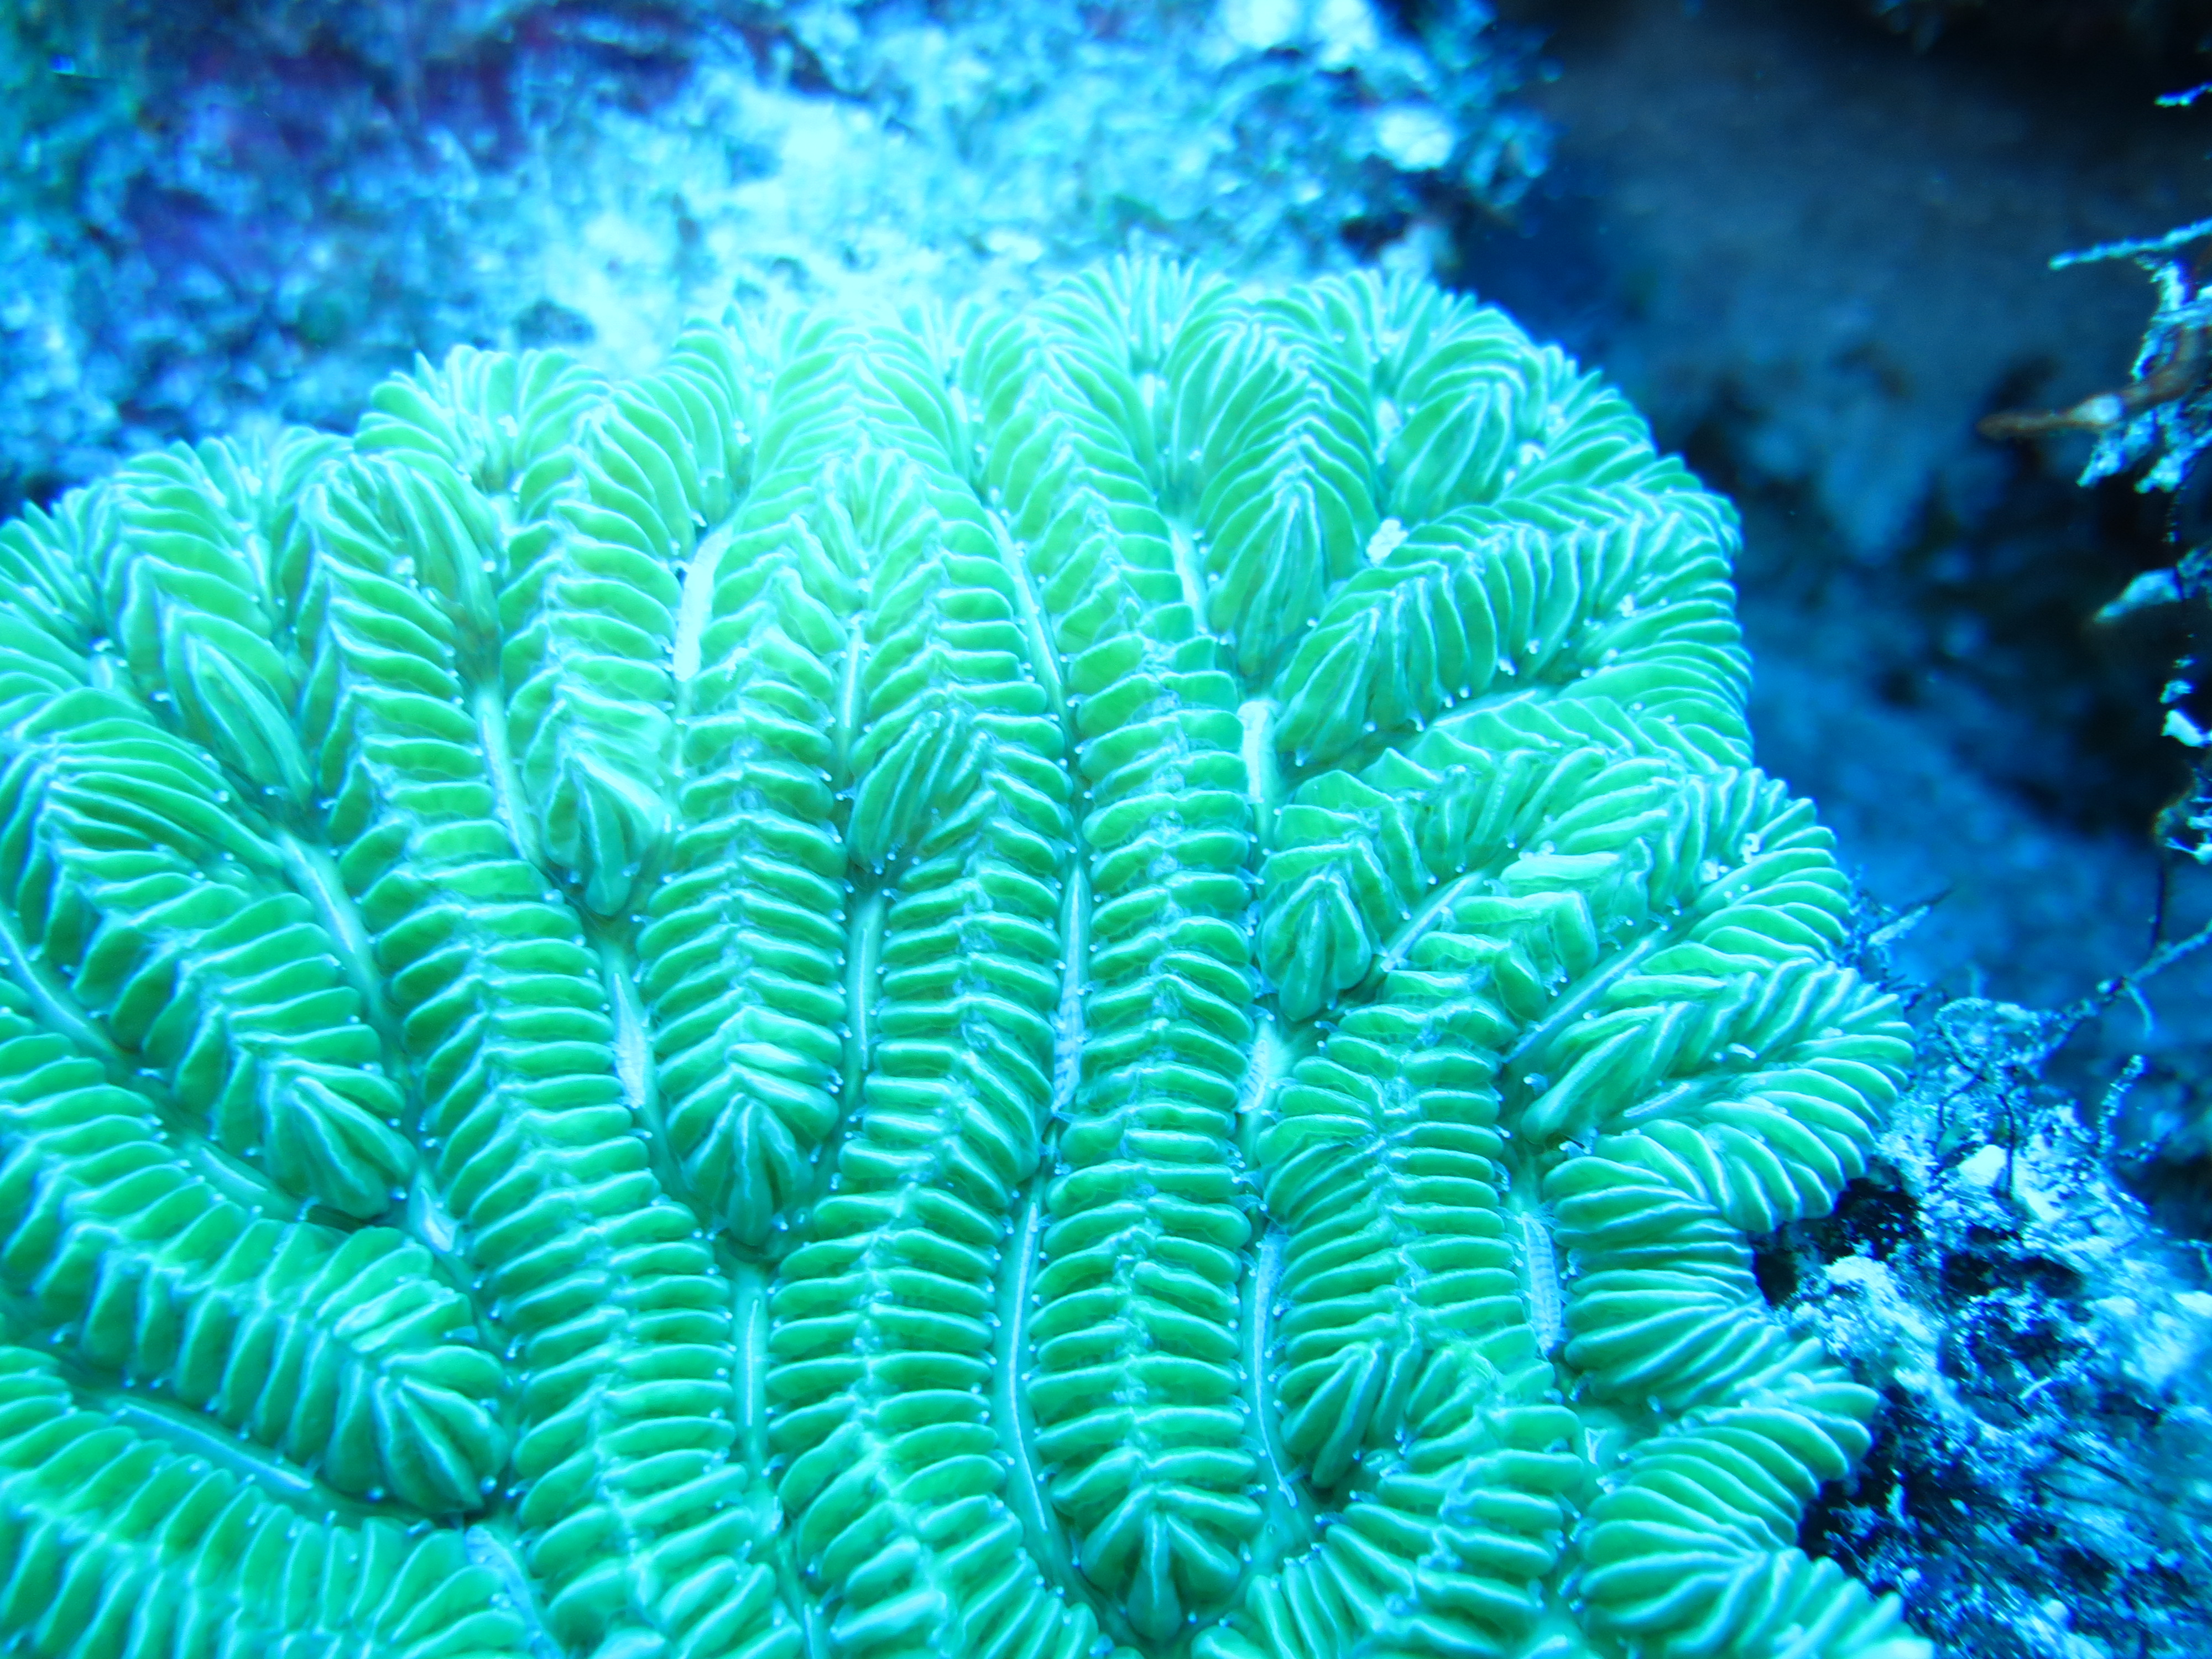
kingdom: Animalia
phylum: Cnidaria
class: Anthozoa
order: Scleractinia
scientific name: Scleractinia
